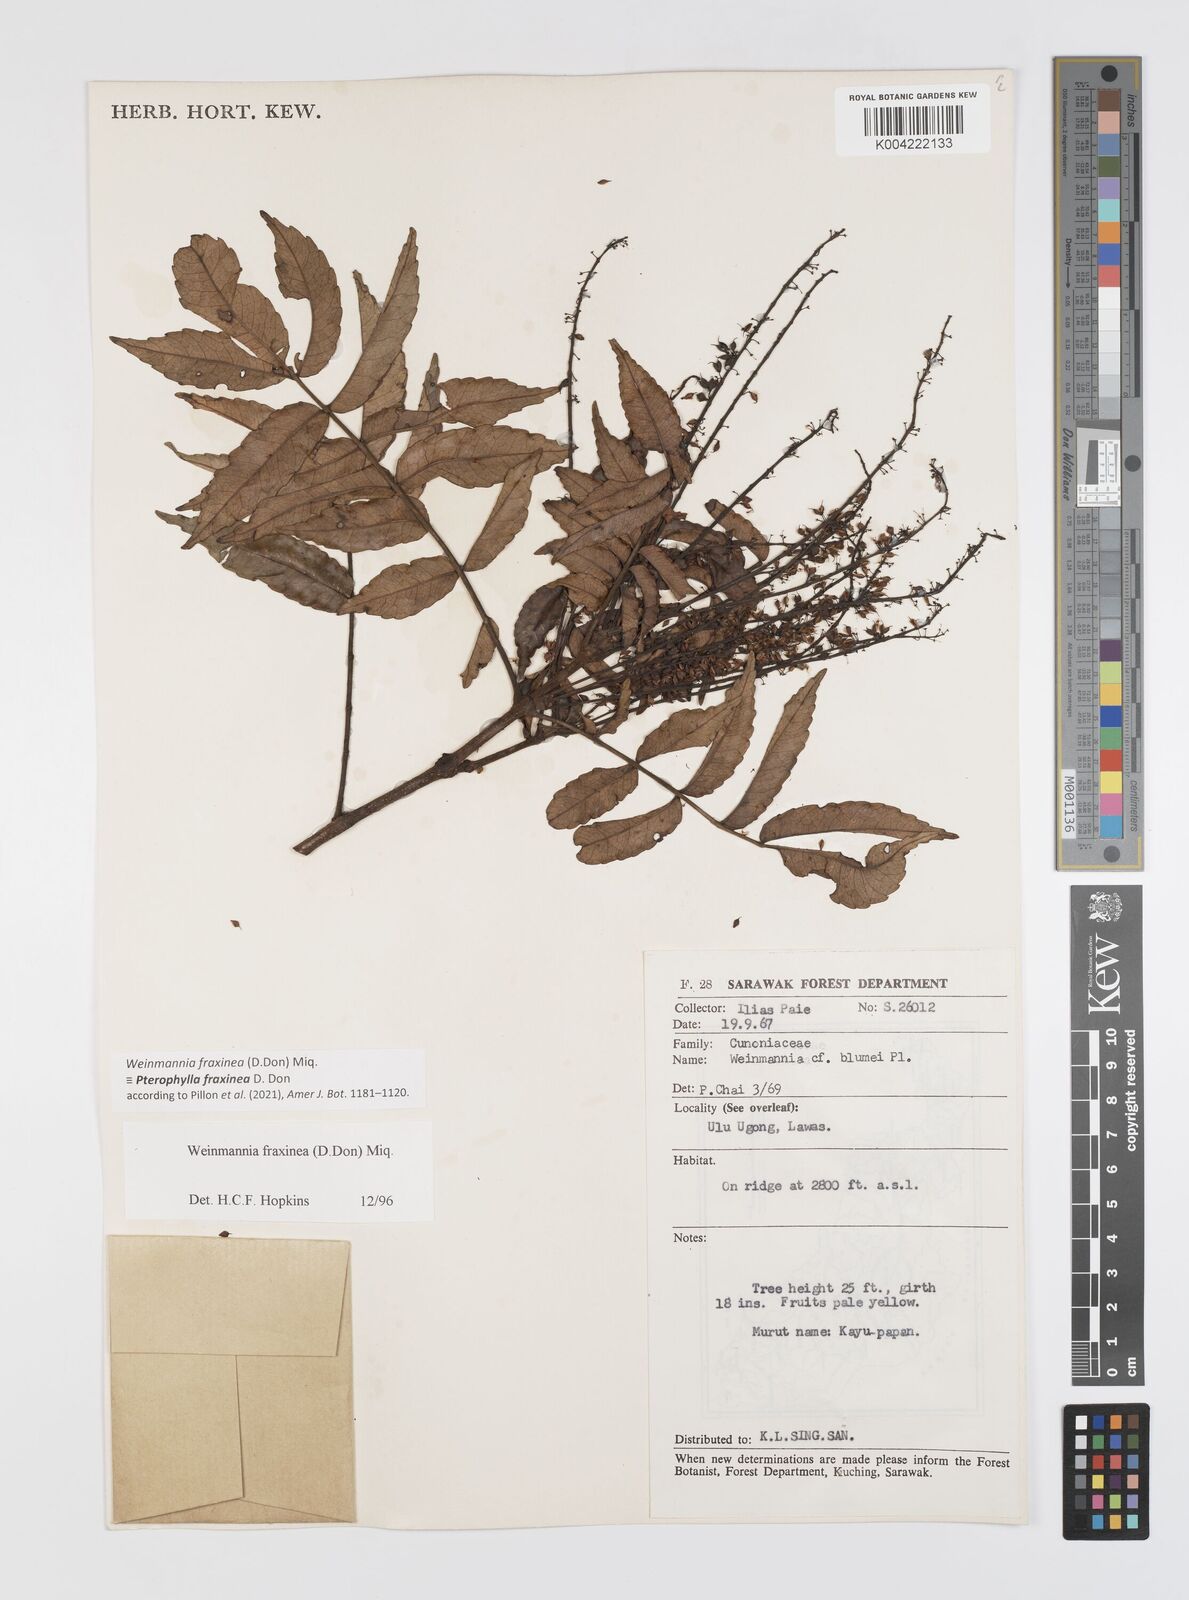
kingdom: Plantae
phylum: Tracheophyta
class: Magnoliopsida
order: Oxalidales
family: Cunoniaceae
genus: Pterophylla
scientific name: Pterophylla fraxinea
